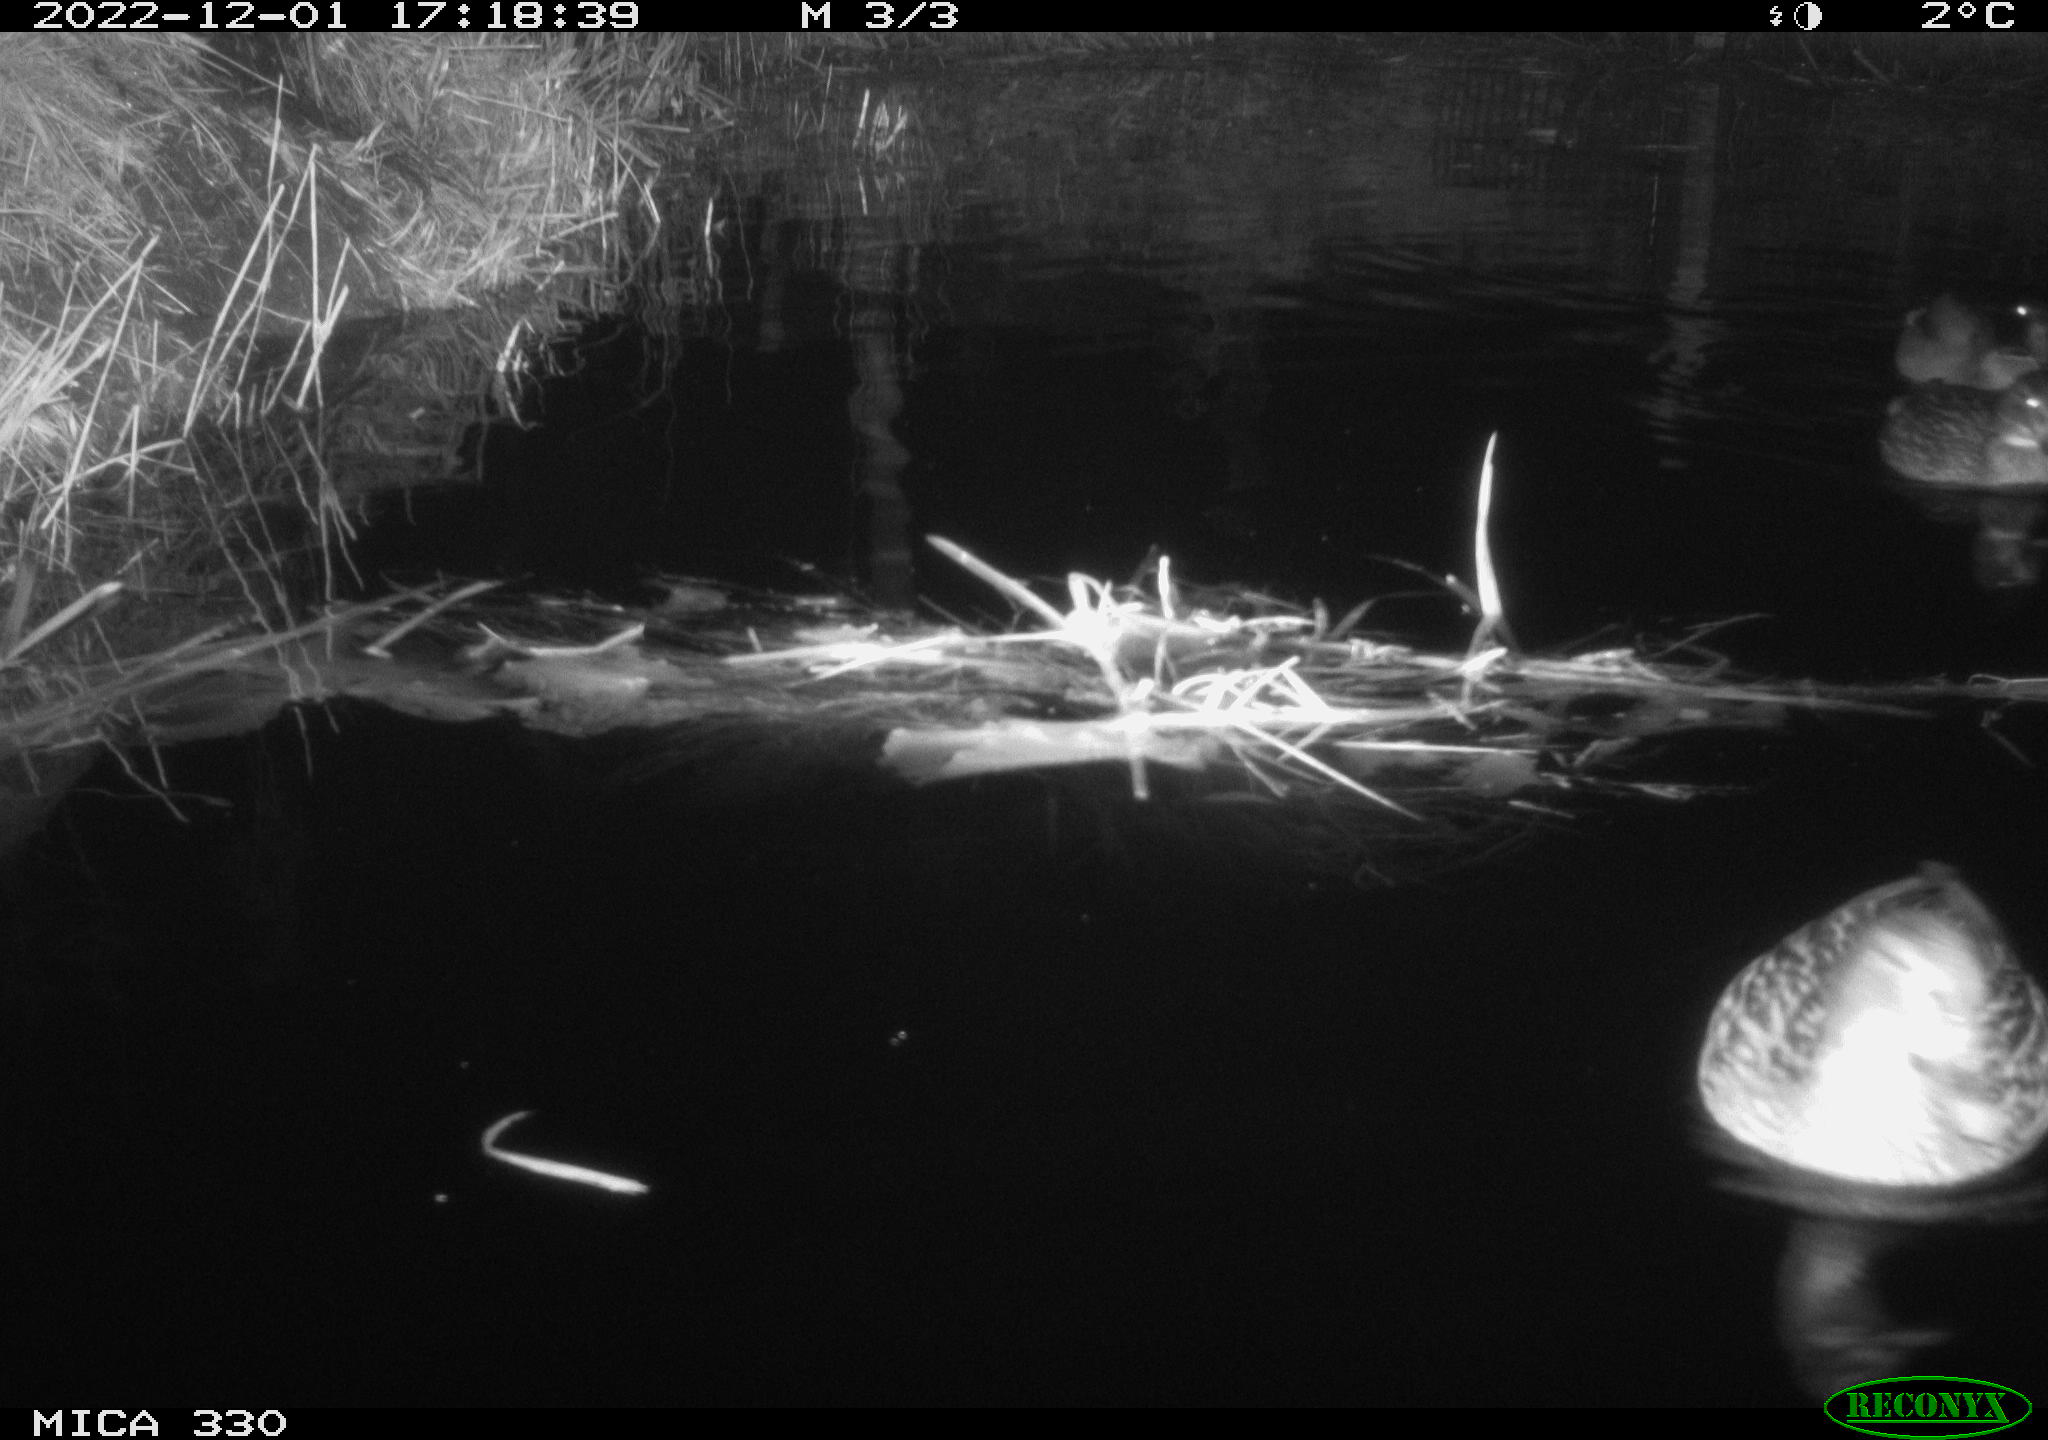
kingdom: Animalia
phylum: Chordata
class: Aves
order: Anseriformes
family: Anatidae
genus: Anas
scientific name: Anas
